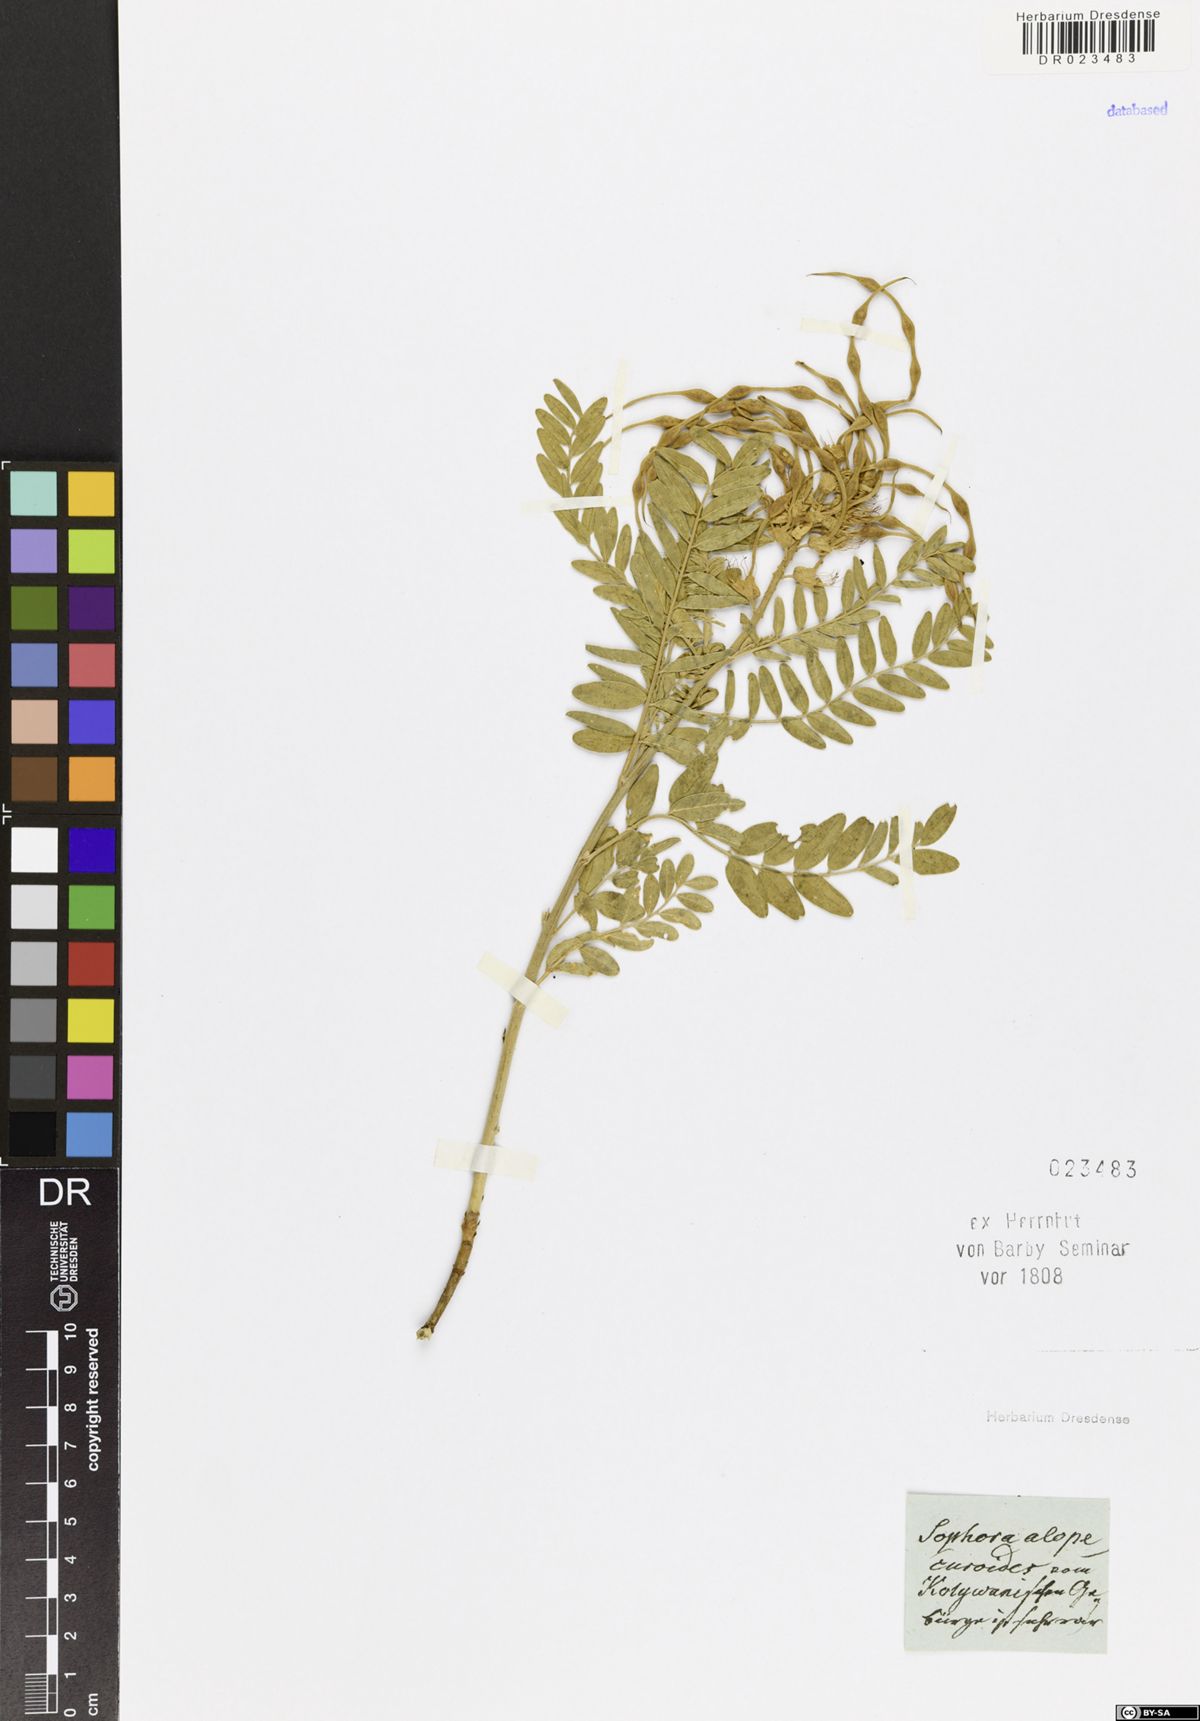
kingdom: Plantae
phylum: Tracheophyta
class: Magnoliopsida
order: Fabales
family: Fabaceae
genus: Sophora
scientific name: Sophora alopecuroides
